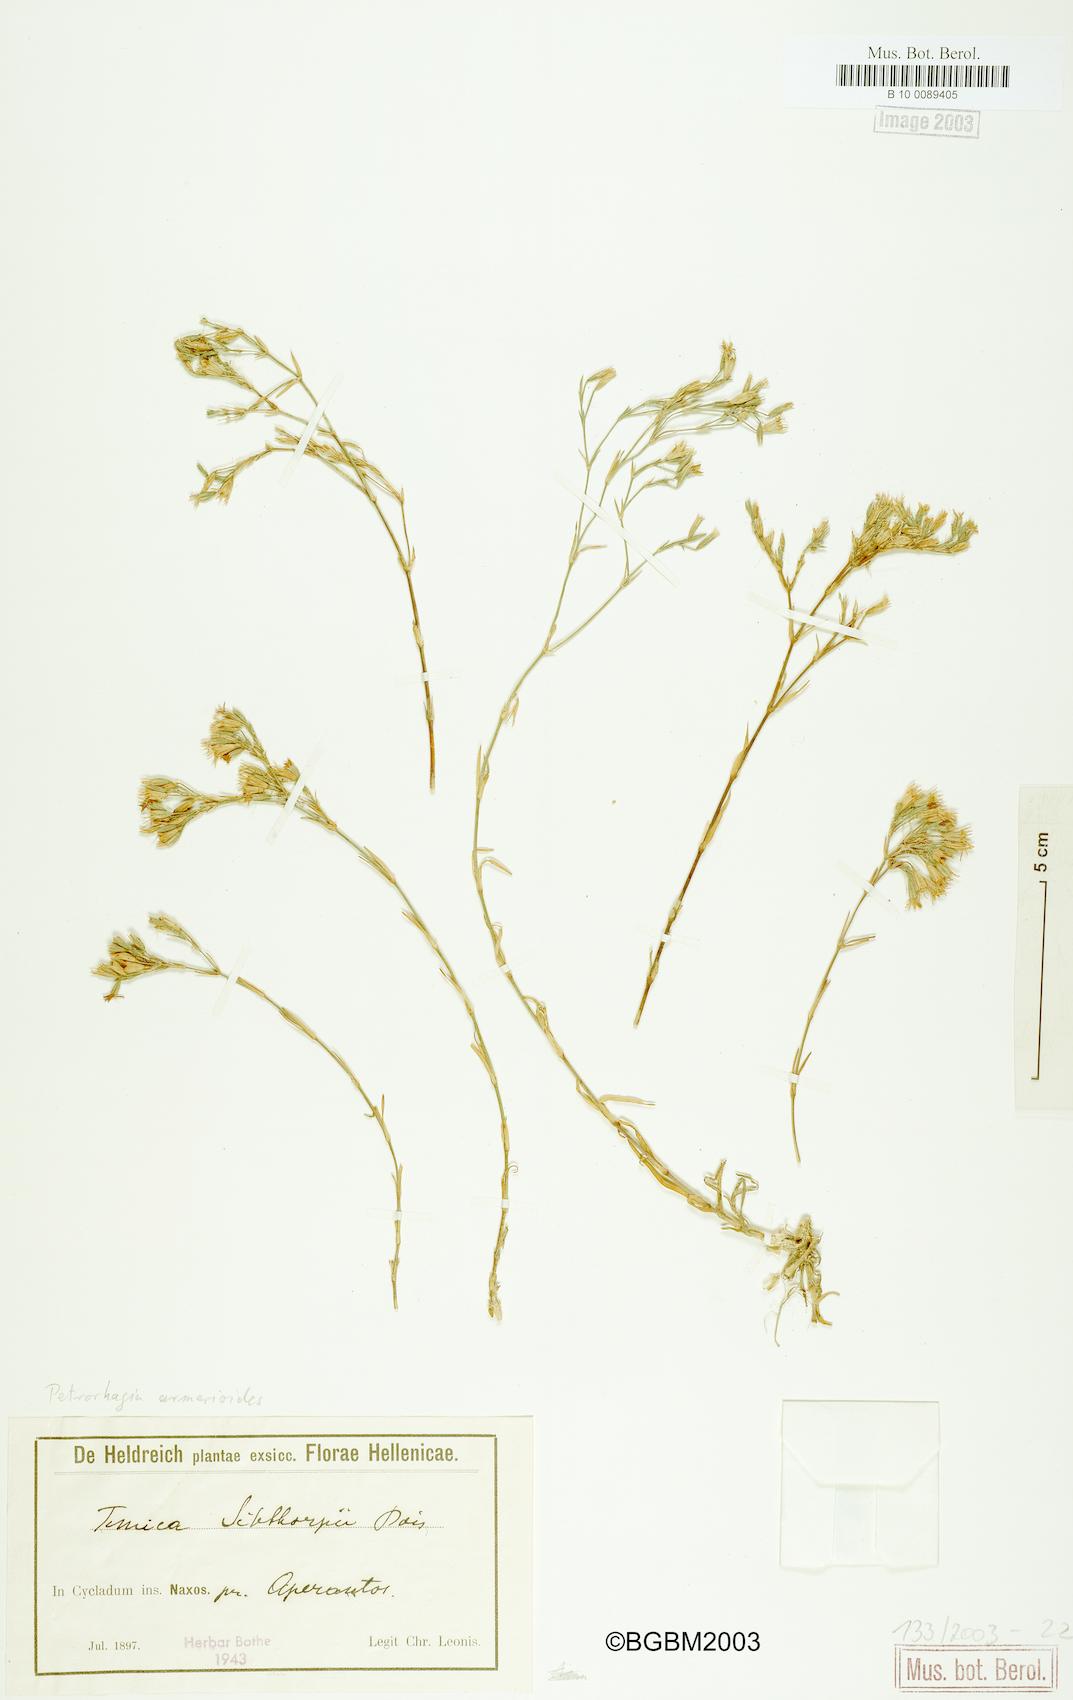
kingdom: Plantae
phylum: Tracheophyta
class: Magnoliopsida
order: Caryophyllales
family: Caryophyllaceae
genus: Dianthus
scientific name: Dianthus tunicoides
